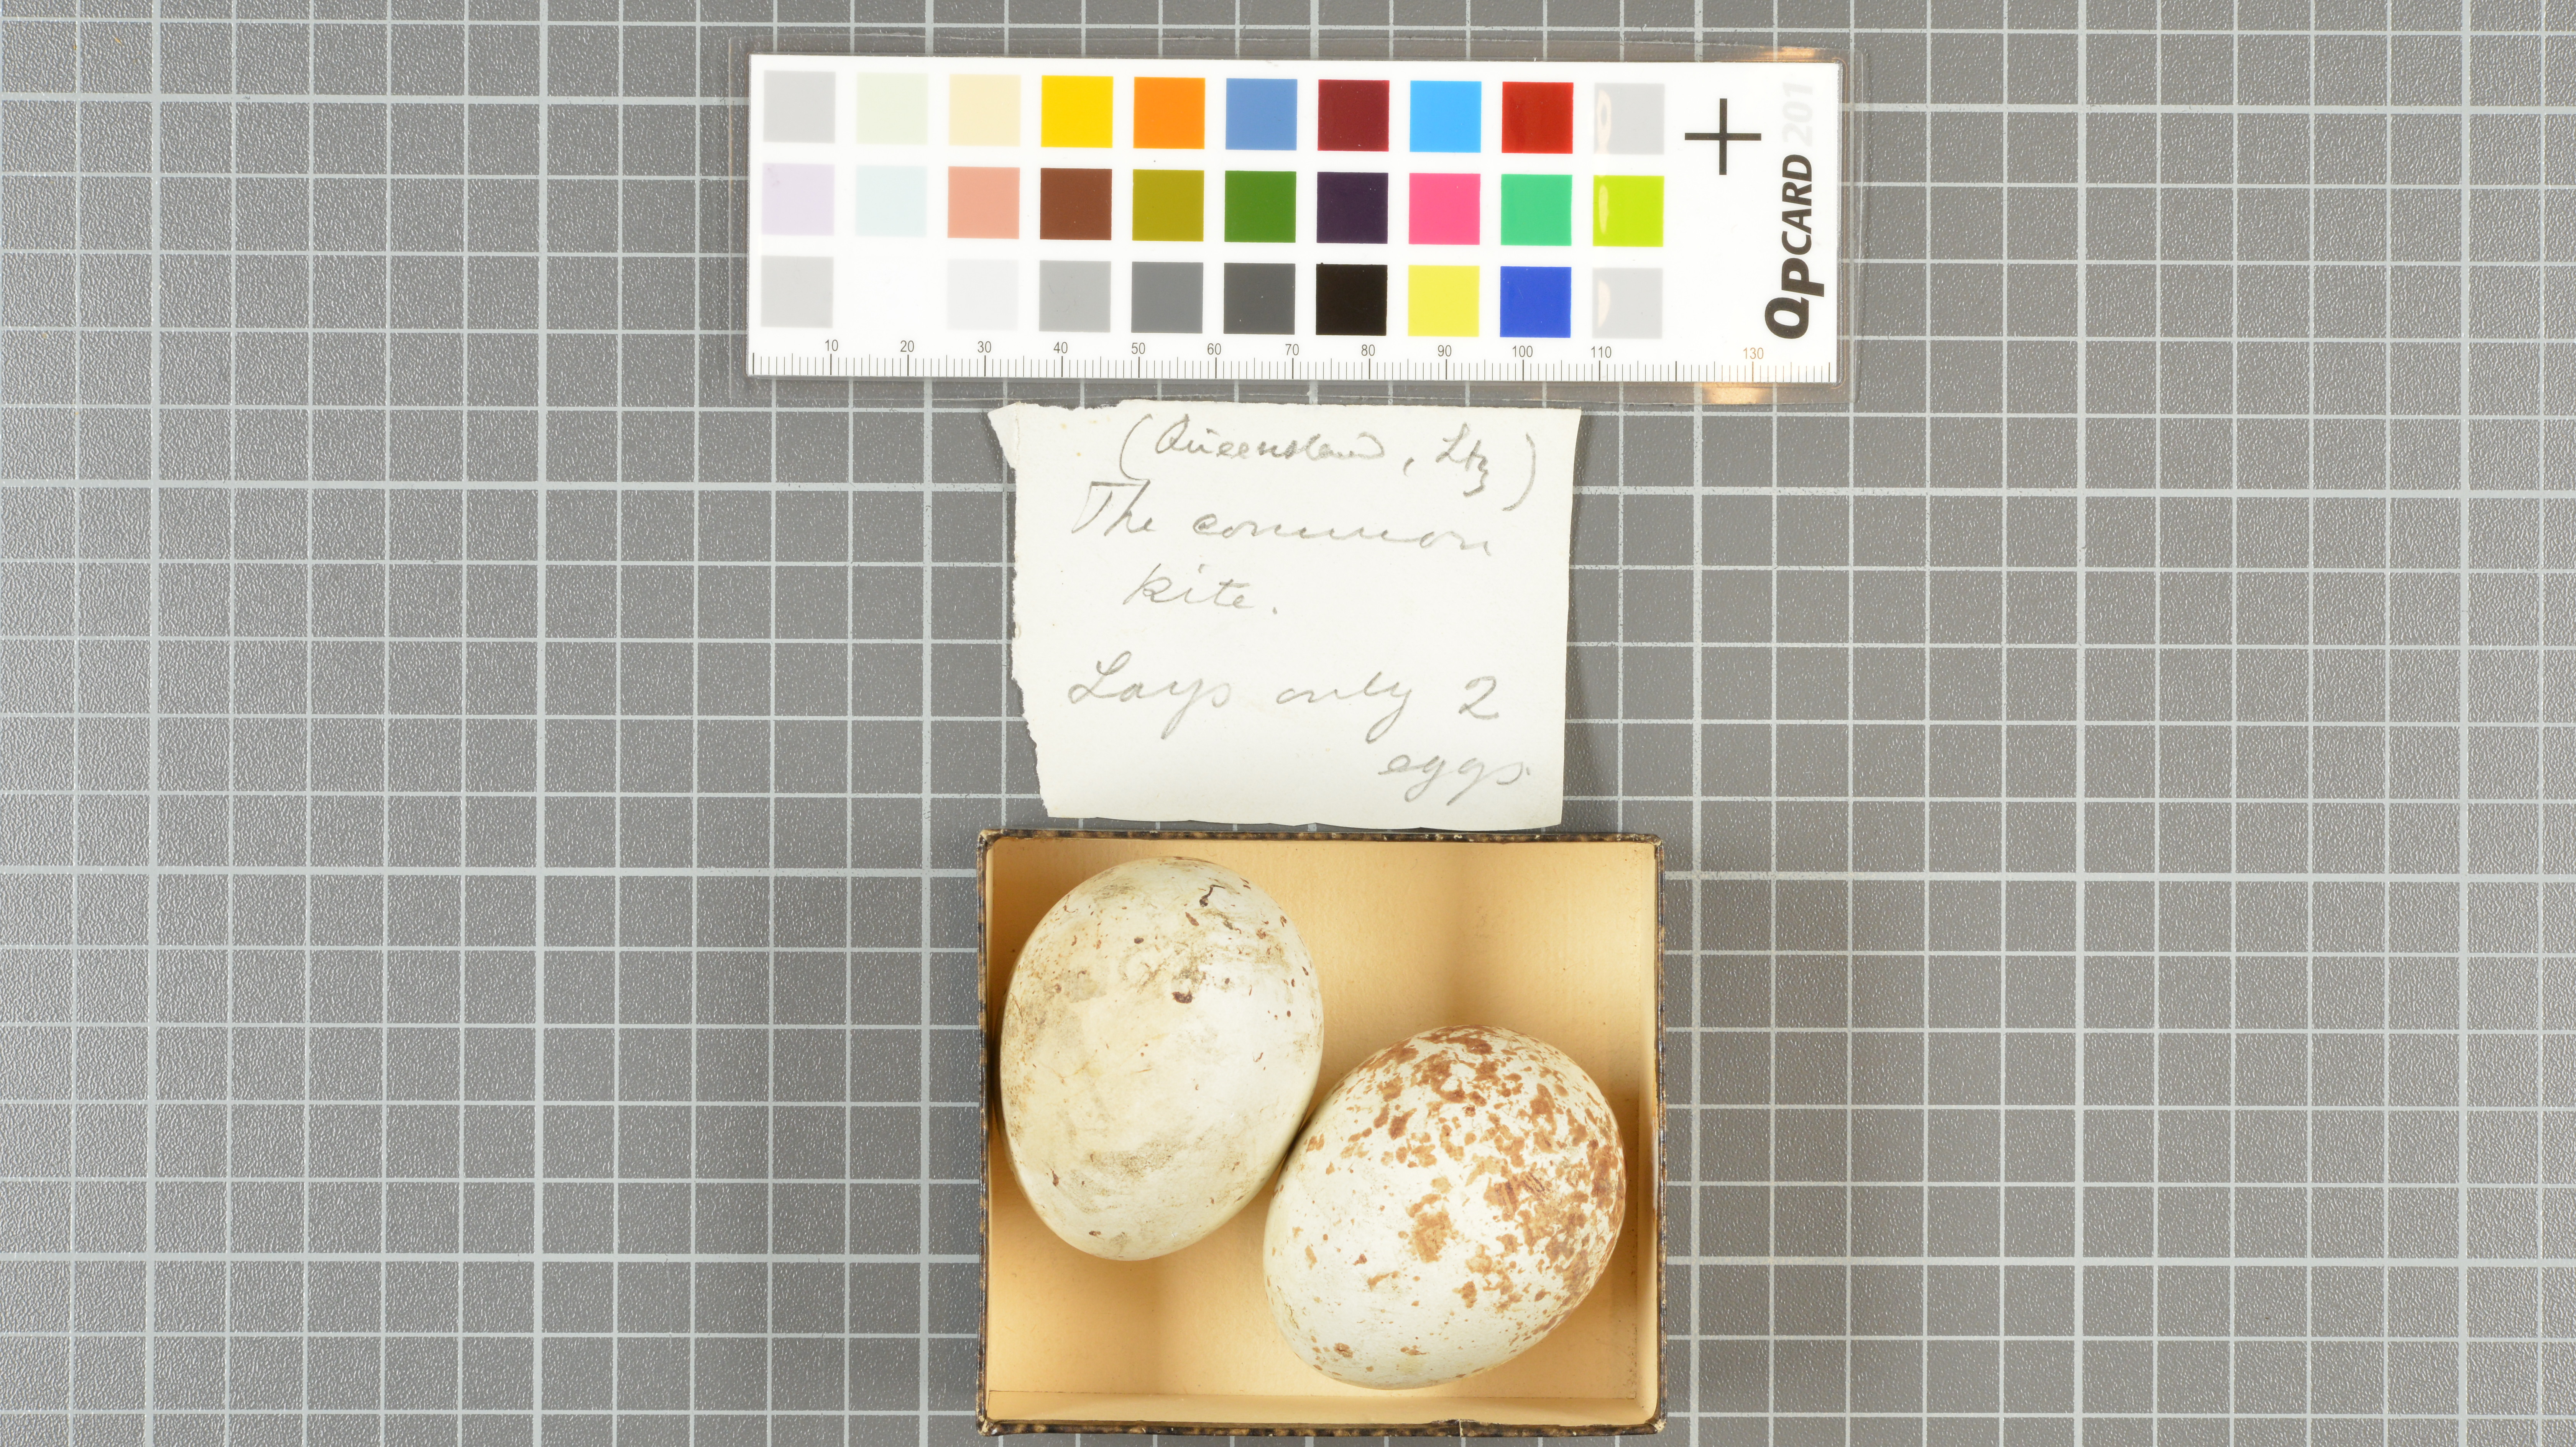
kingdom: Animalia
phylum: Chordata
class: Aves
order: Accipitriformes
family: Accipitridae
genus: Milvus
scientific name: Milvus migrans
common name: Black kite
